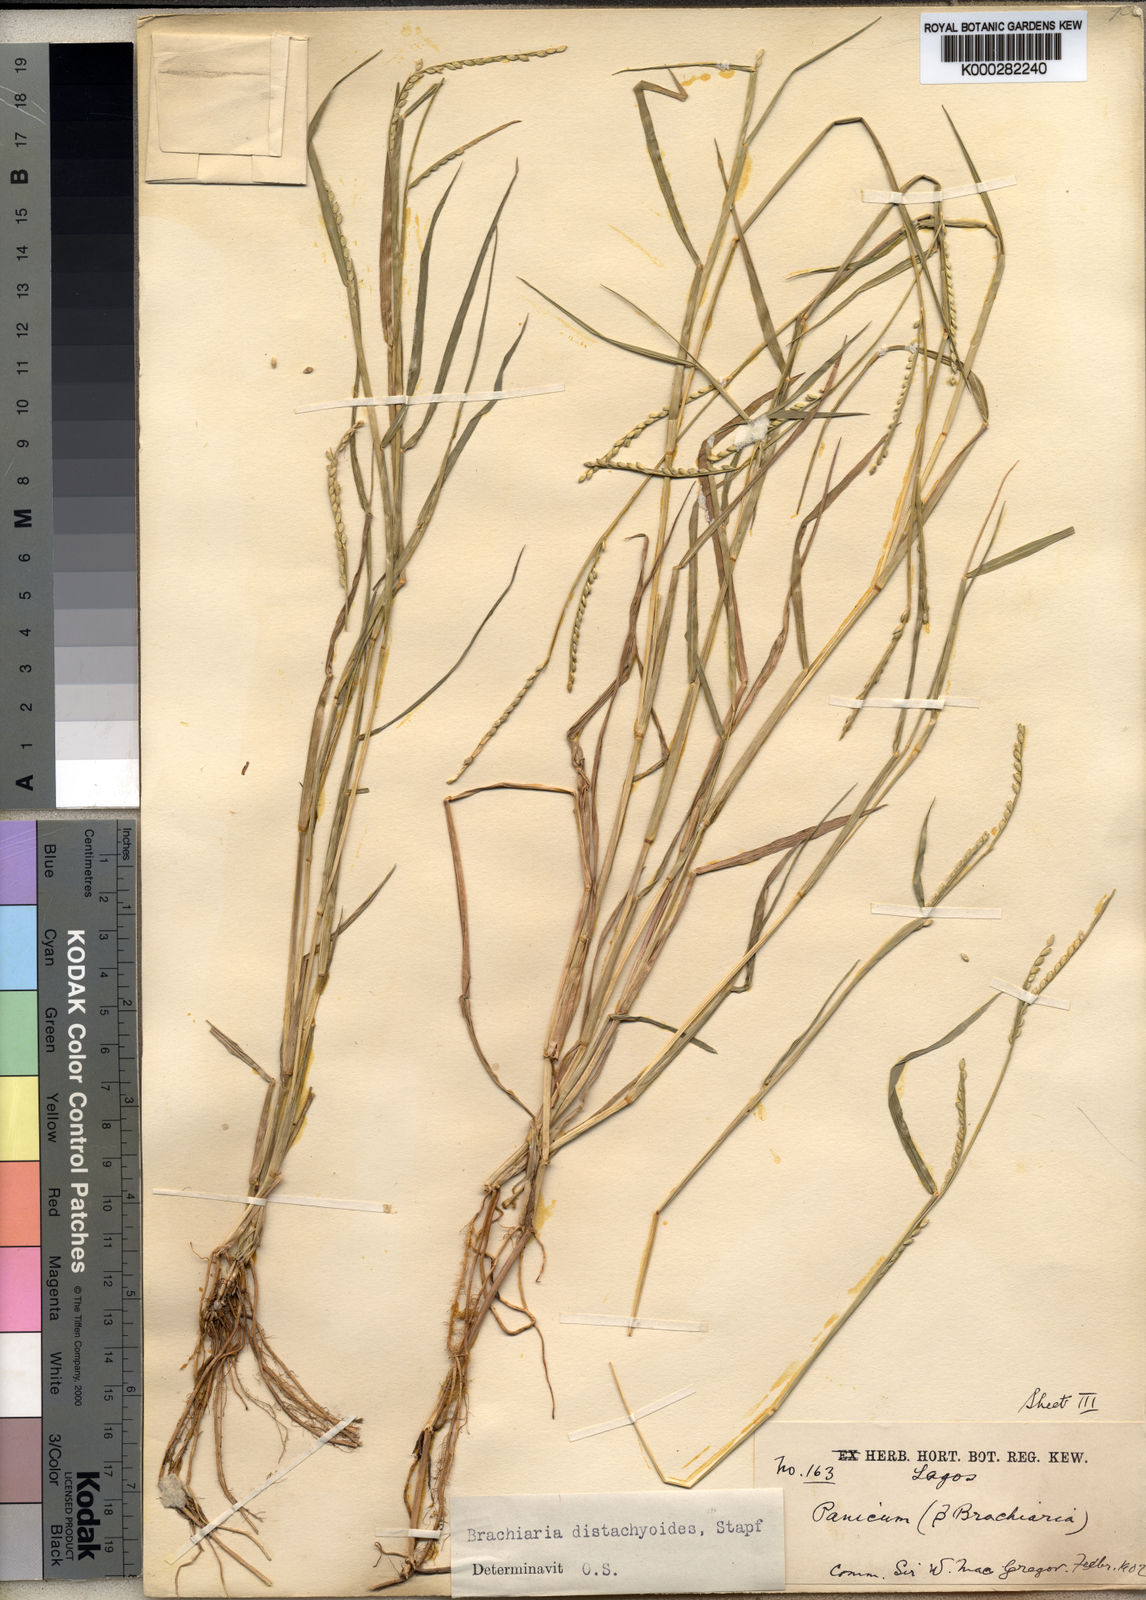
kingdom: Plantae
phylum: Tracheophyta
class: Liliopsida
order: Poales
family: Poaceae
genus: Urochloa
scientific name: Urochloa distachyoides
